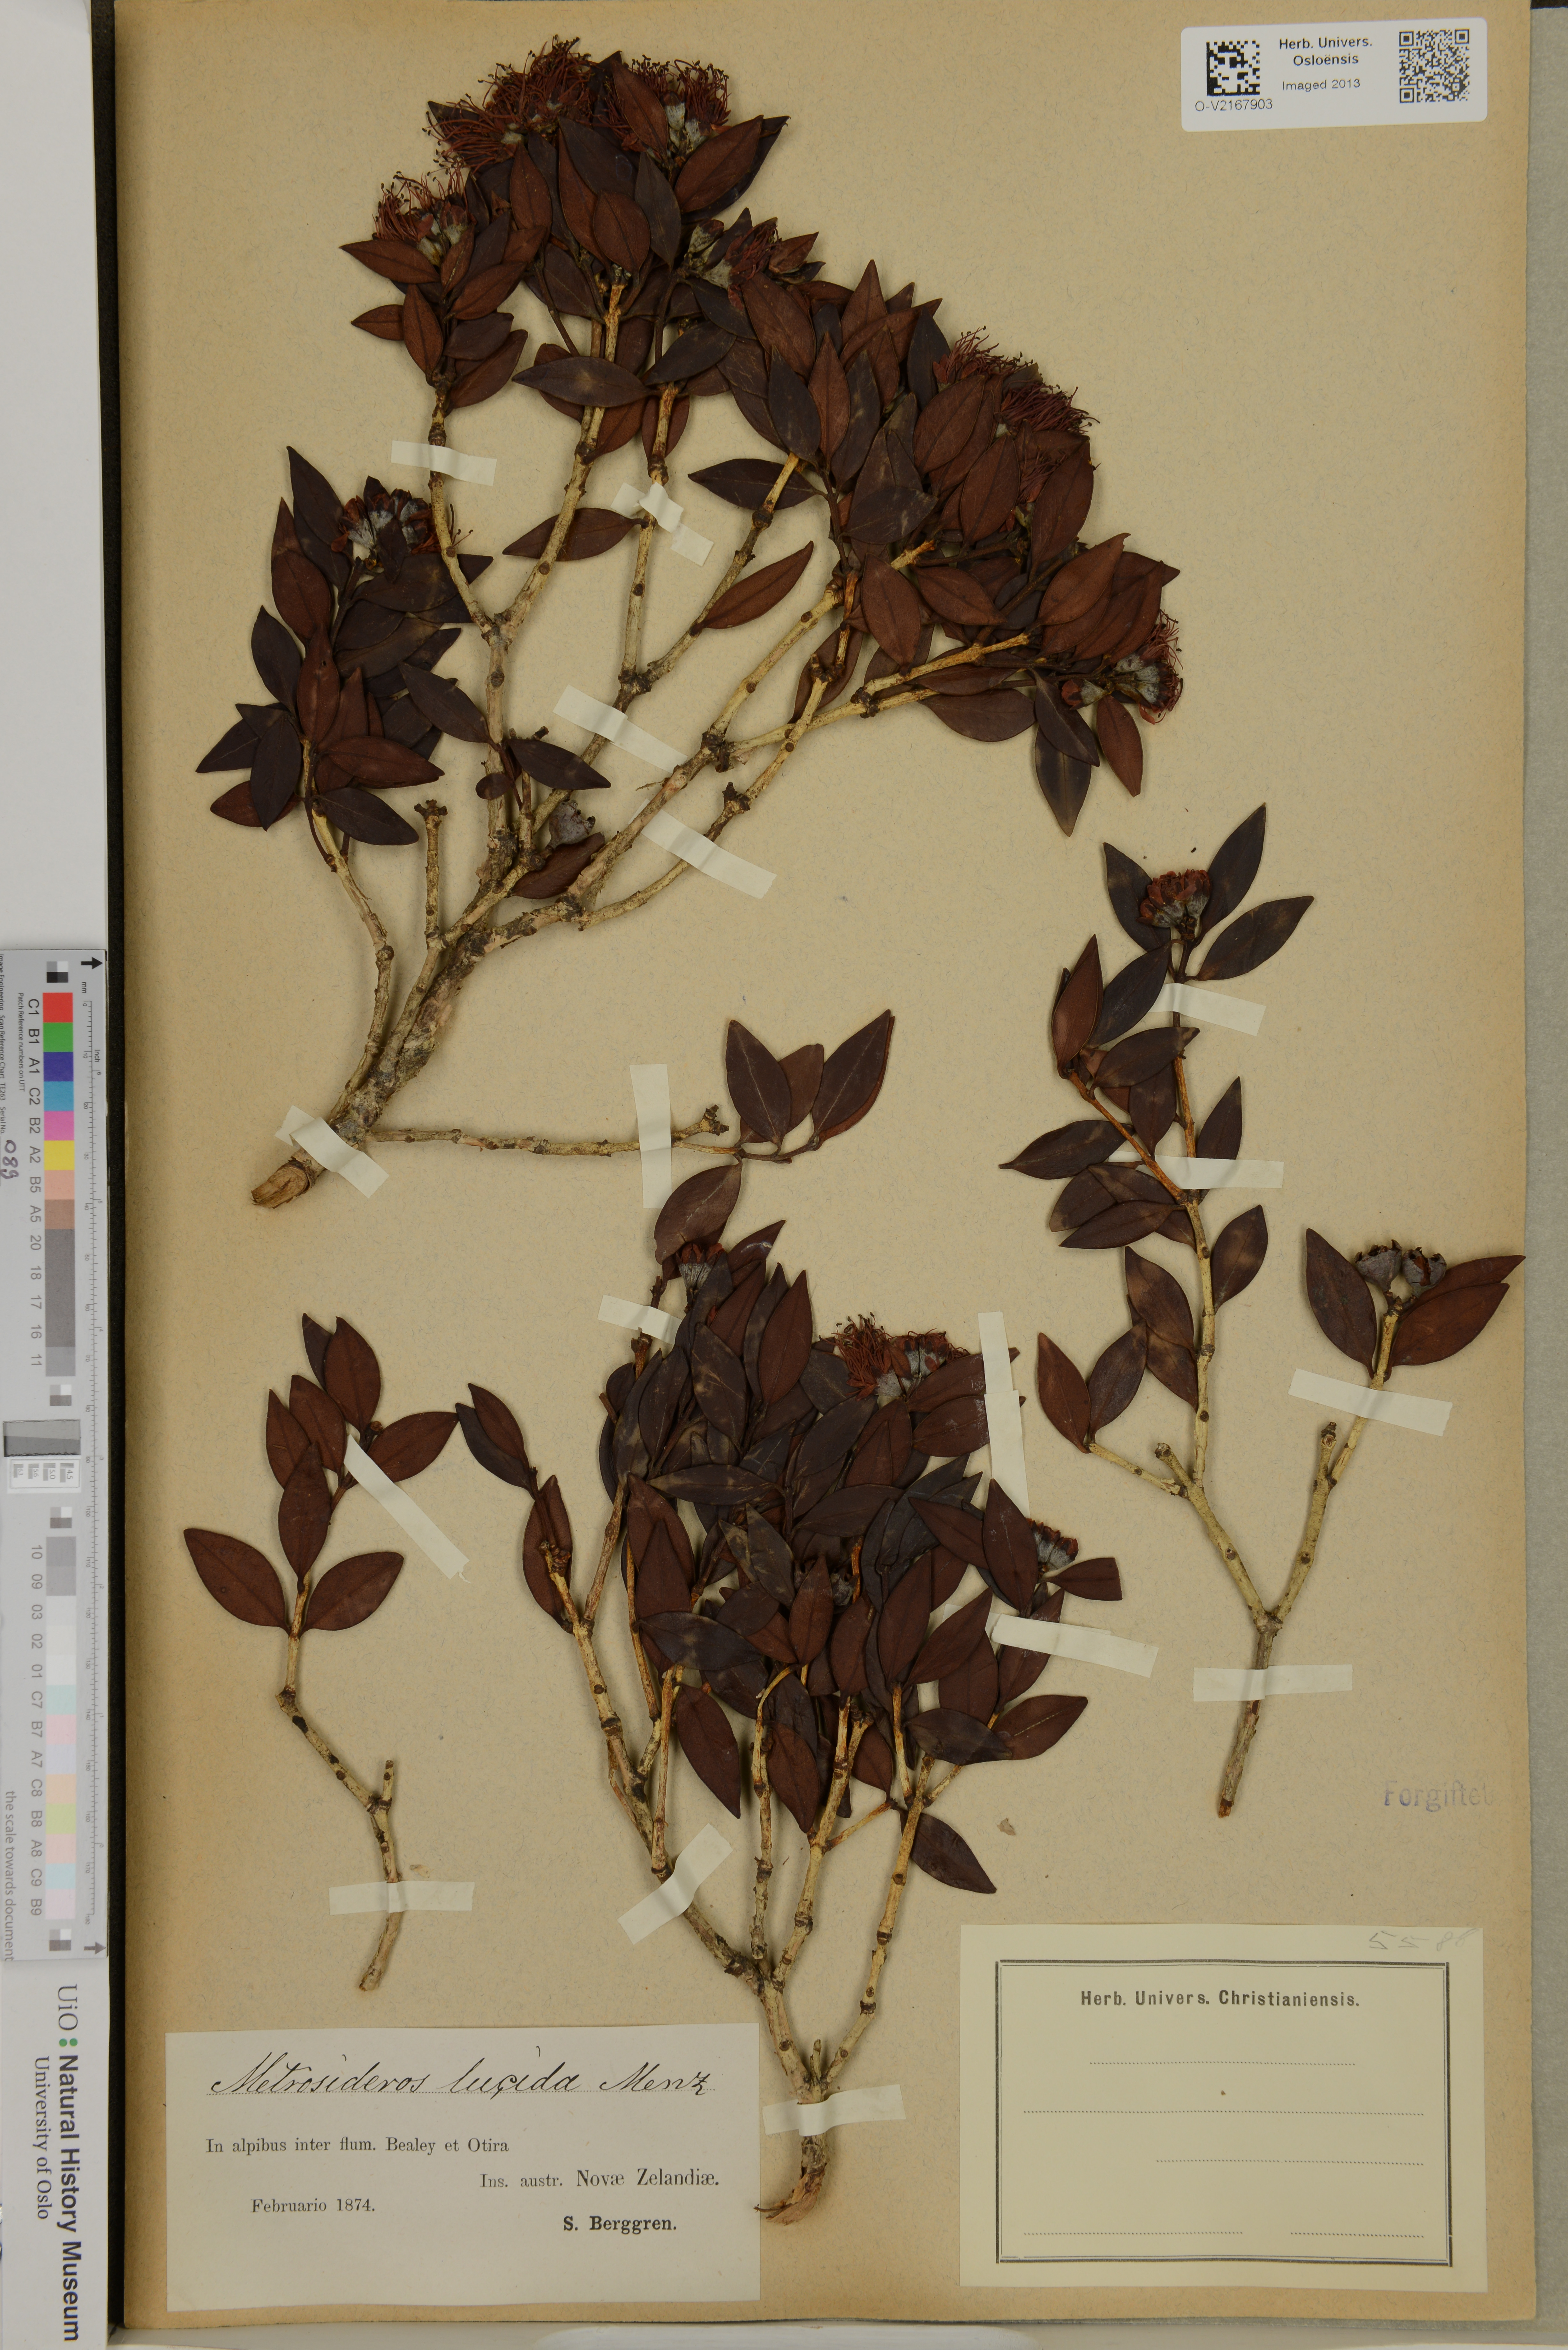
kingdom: Plantae
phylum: Tracheophyta
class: Magnoliopsida
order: Myrtales
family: Myrtaceae
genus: Metrosideros
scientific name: Metrosideros lucida
